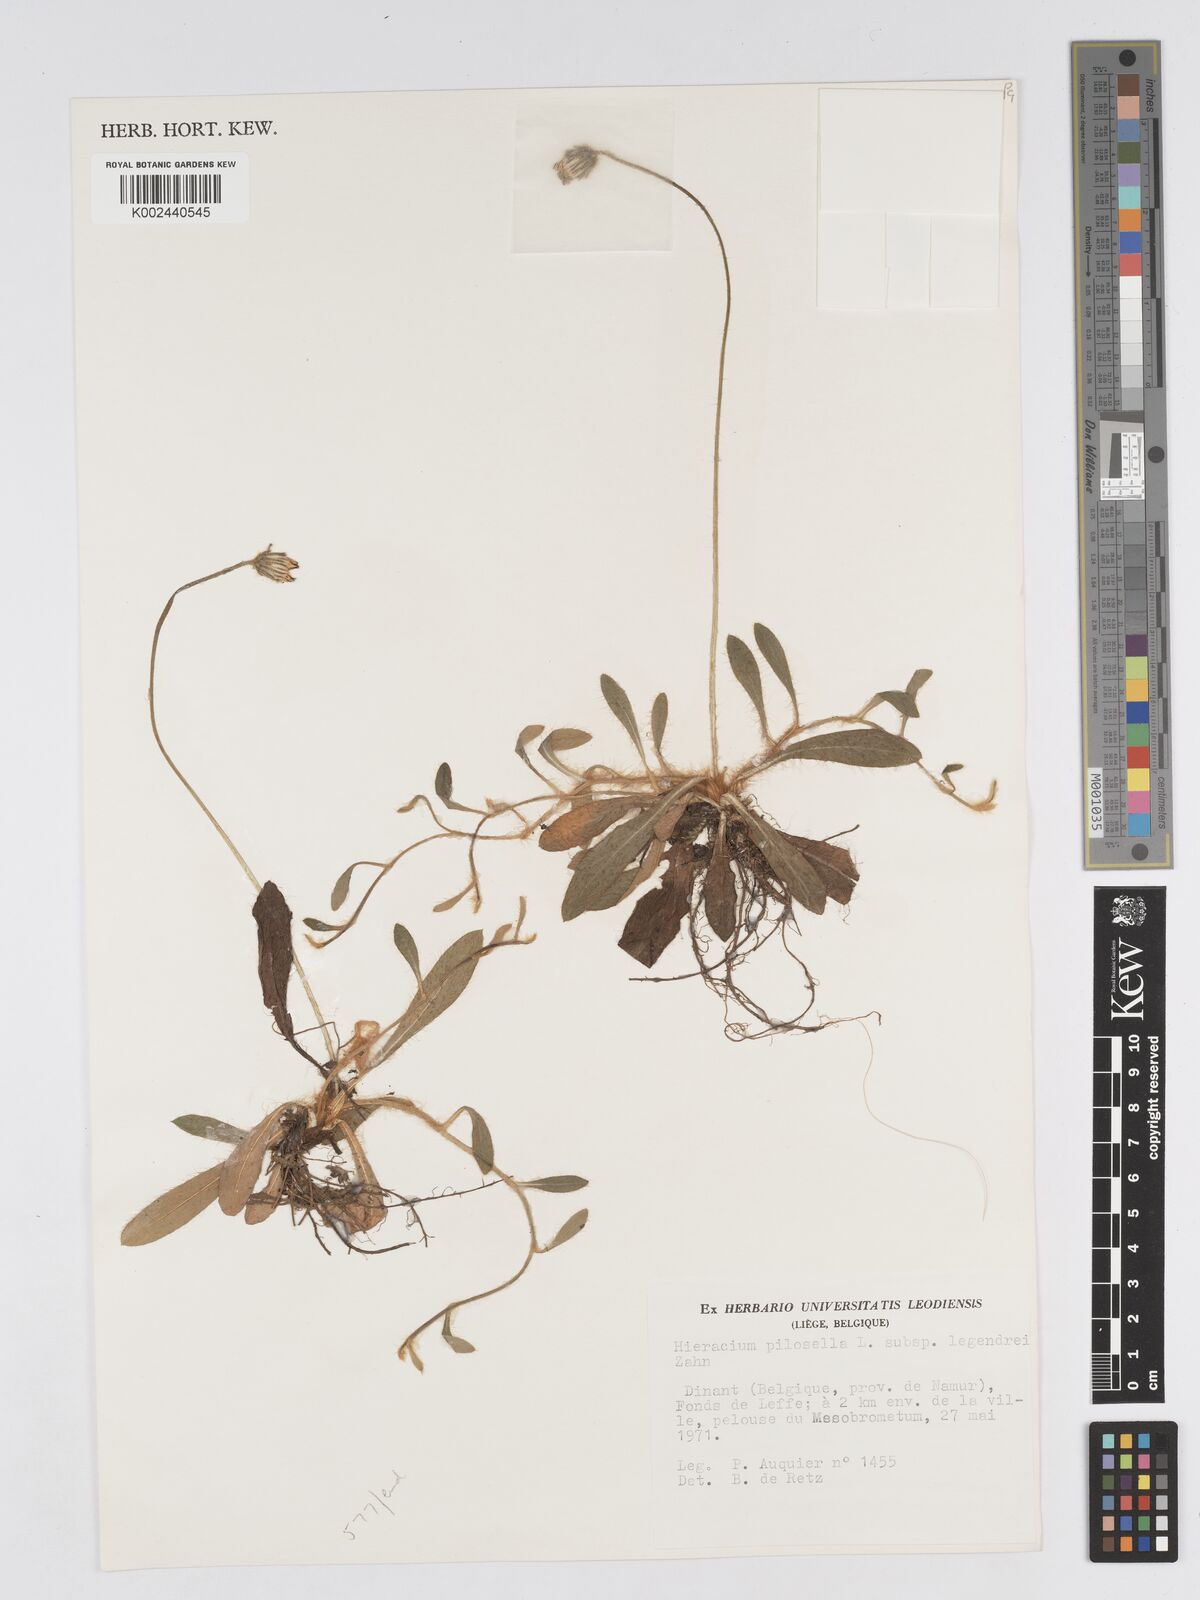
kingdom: Plantae
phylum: Tracheophyta
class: Magnoliopsida
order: Asterales
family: Asteraceae
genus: Pilosella
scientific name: Pilosella officinarum
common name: Mouse-ear hawkweed
